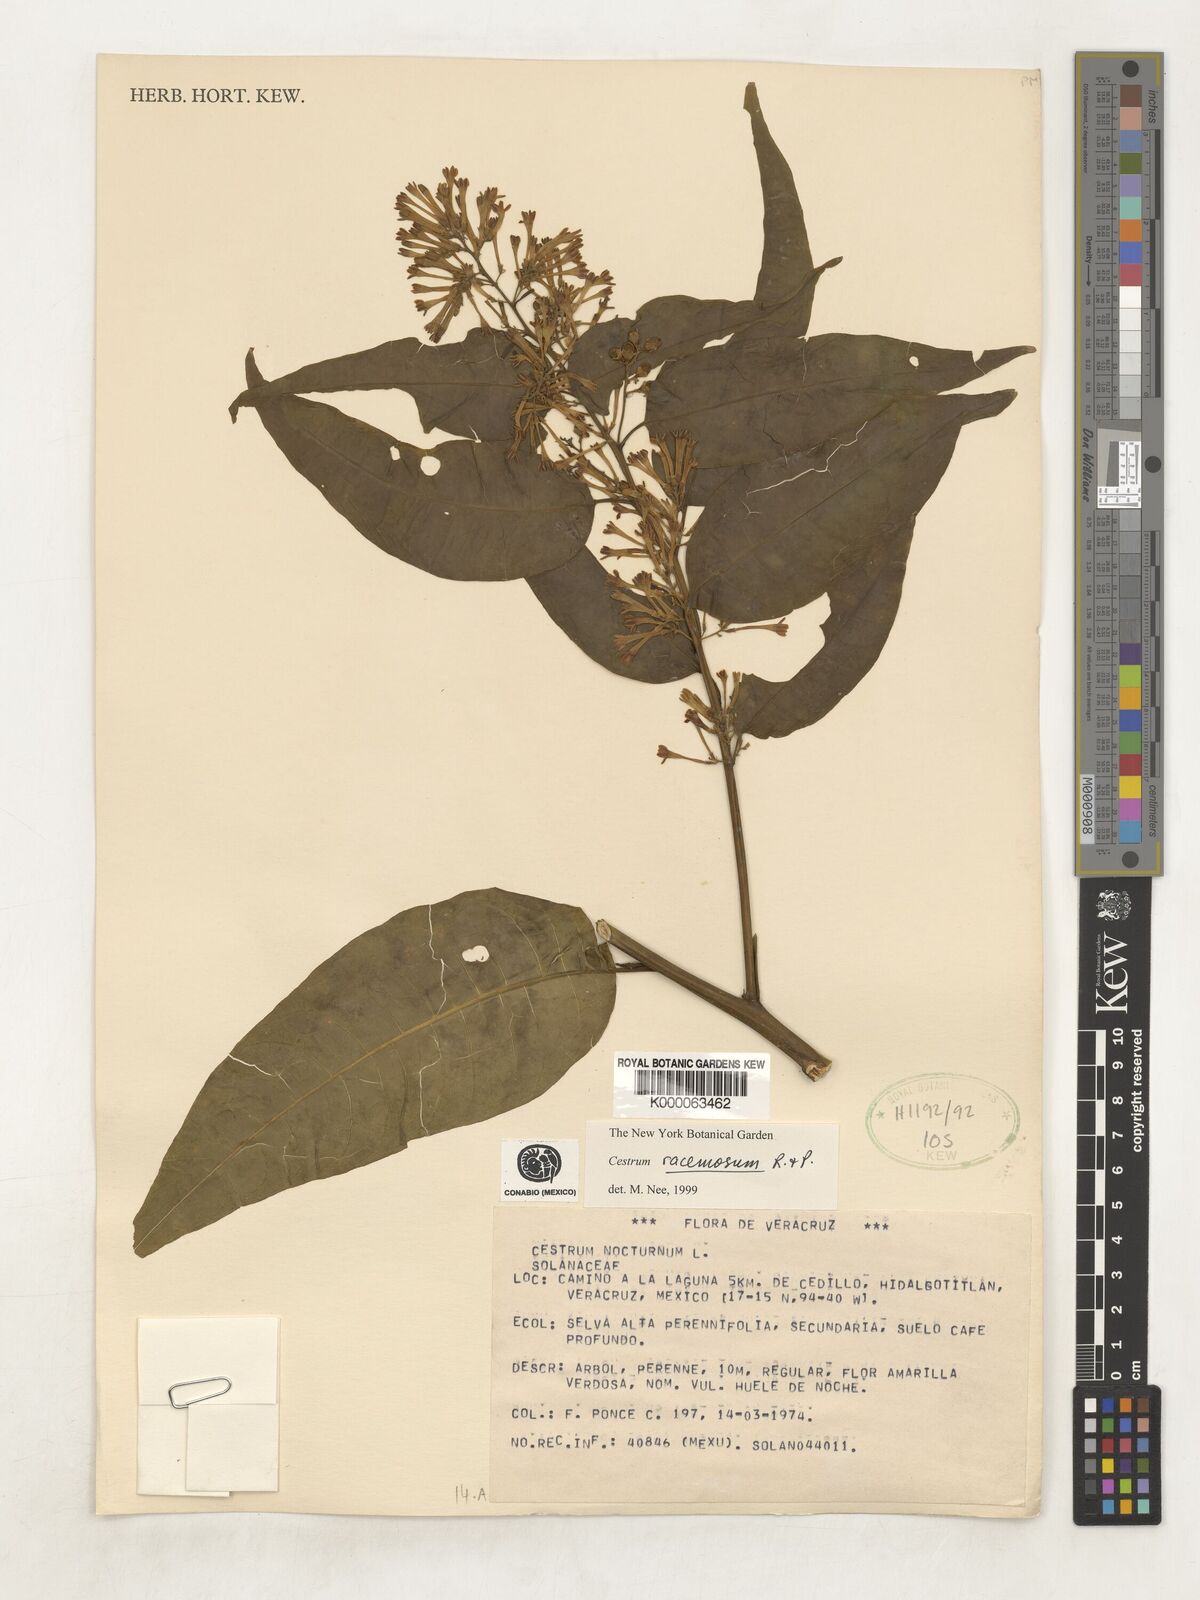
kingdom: Plantae
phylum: Tracheophyta
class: Magnoliopsida
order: Solanales
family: Solanaceae
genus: Cestrum
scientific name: Cestrum racemosum
